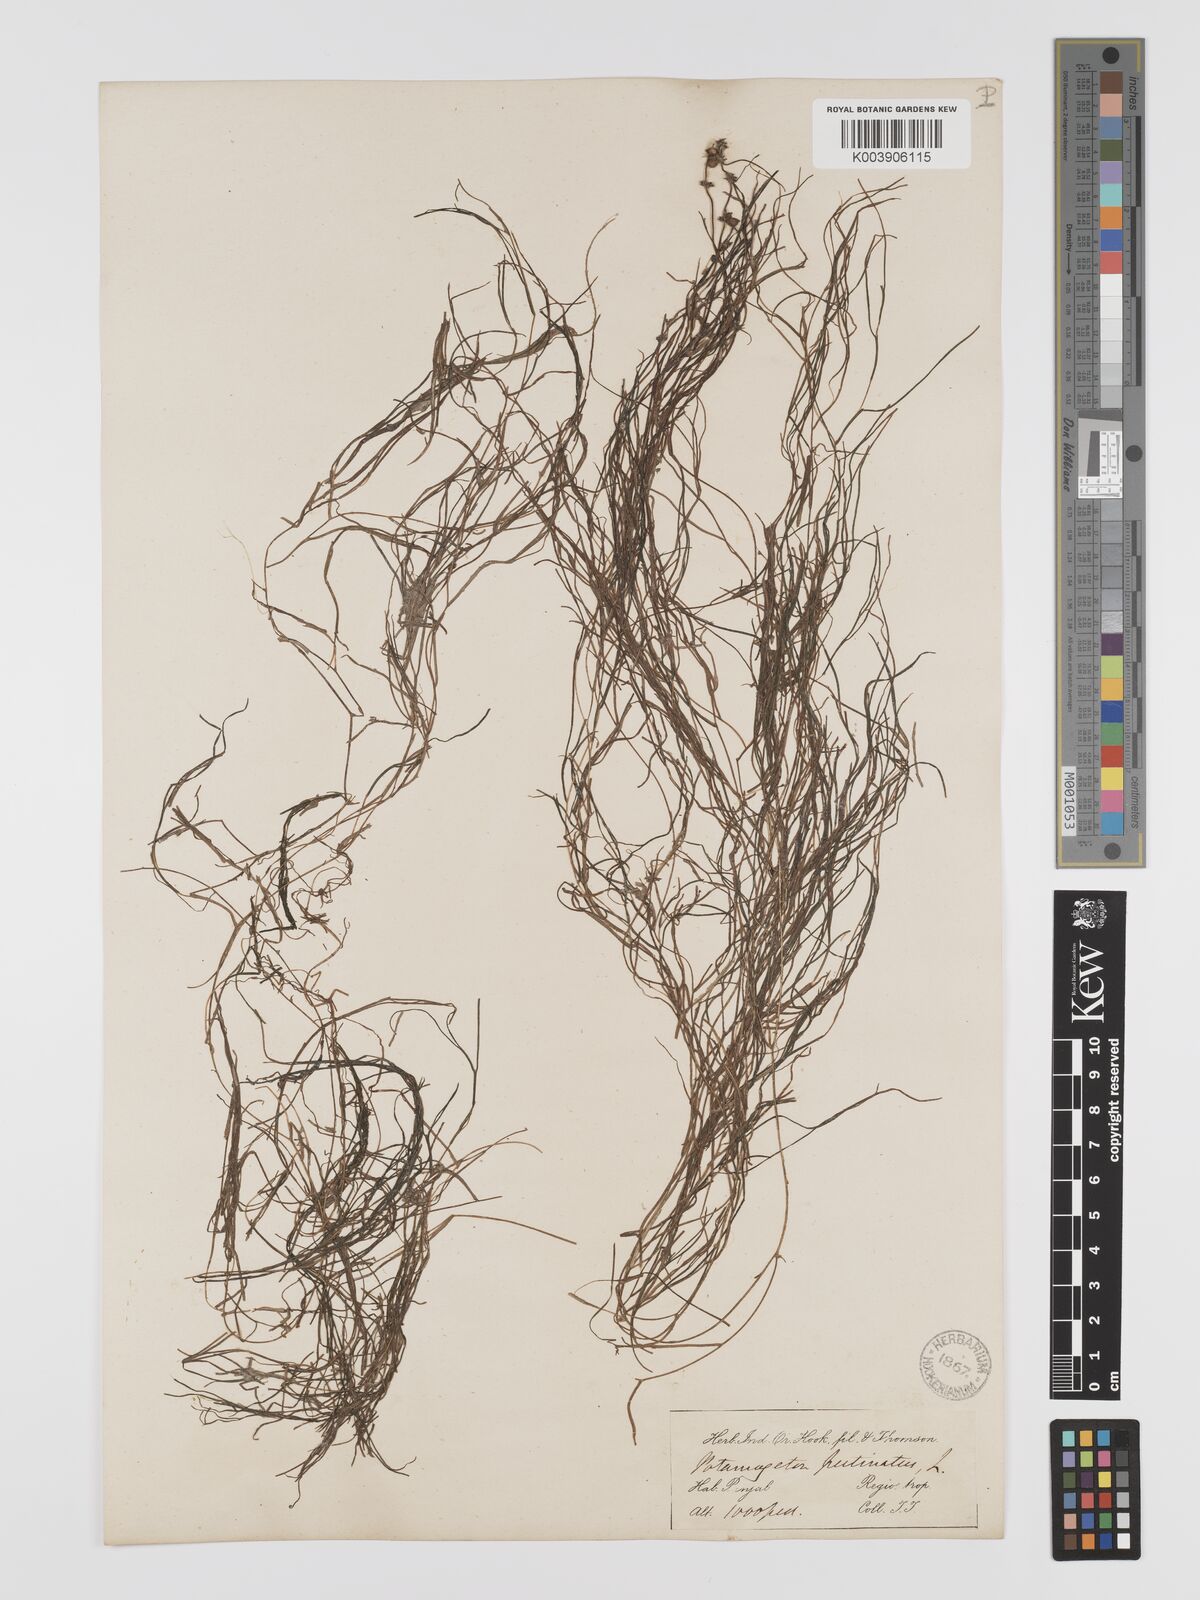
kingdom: Plantae
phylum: Tracheophyta
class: Liliopsida
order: Alismatales
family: Potamogetonaceae
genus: Stuckenia
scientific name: Stuckenia pectinata
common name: Sago pondweed
